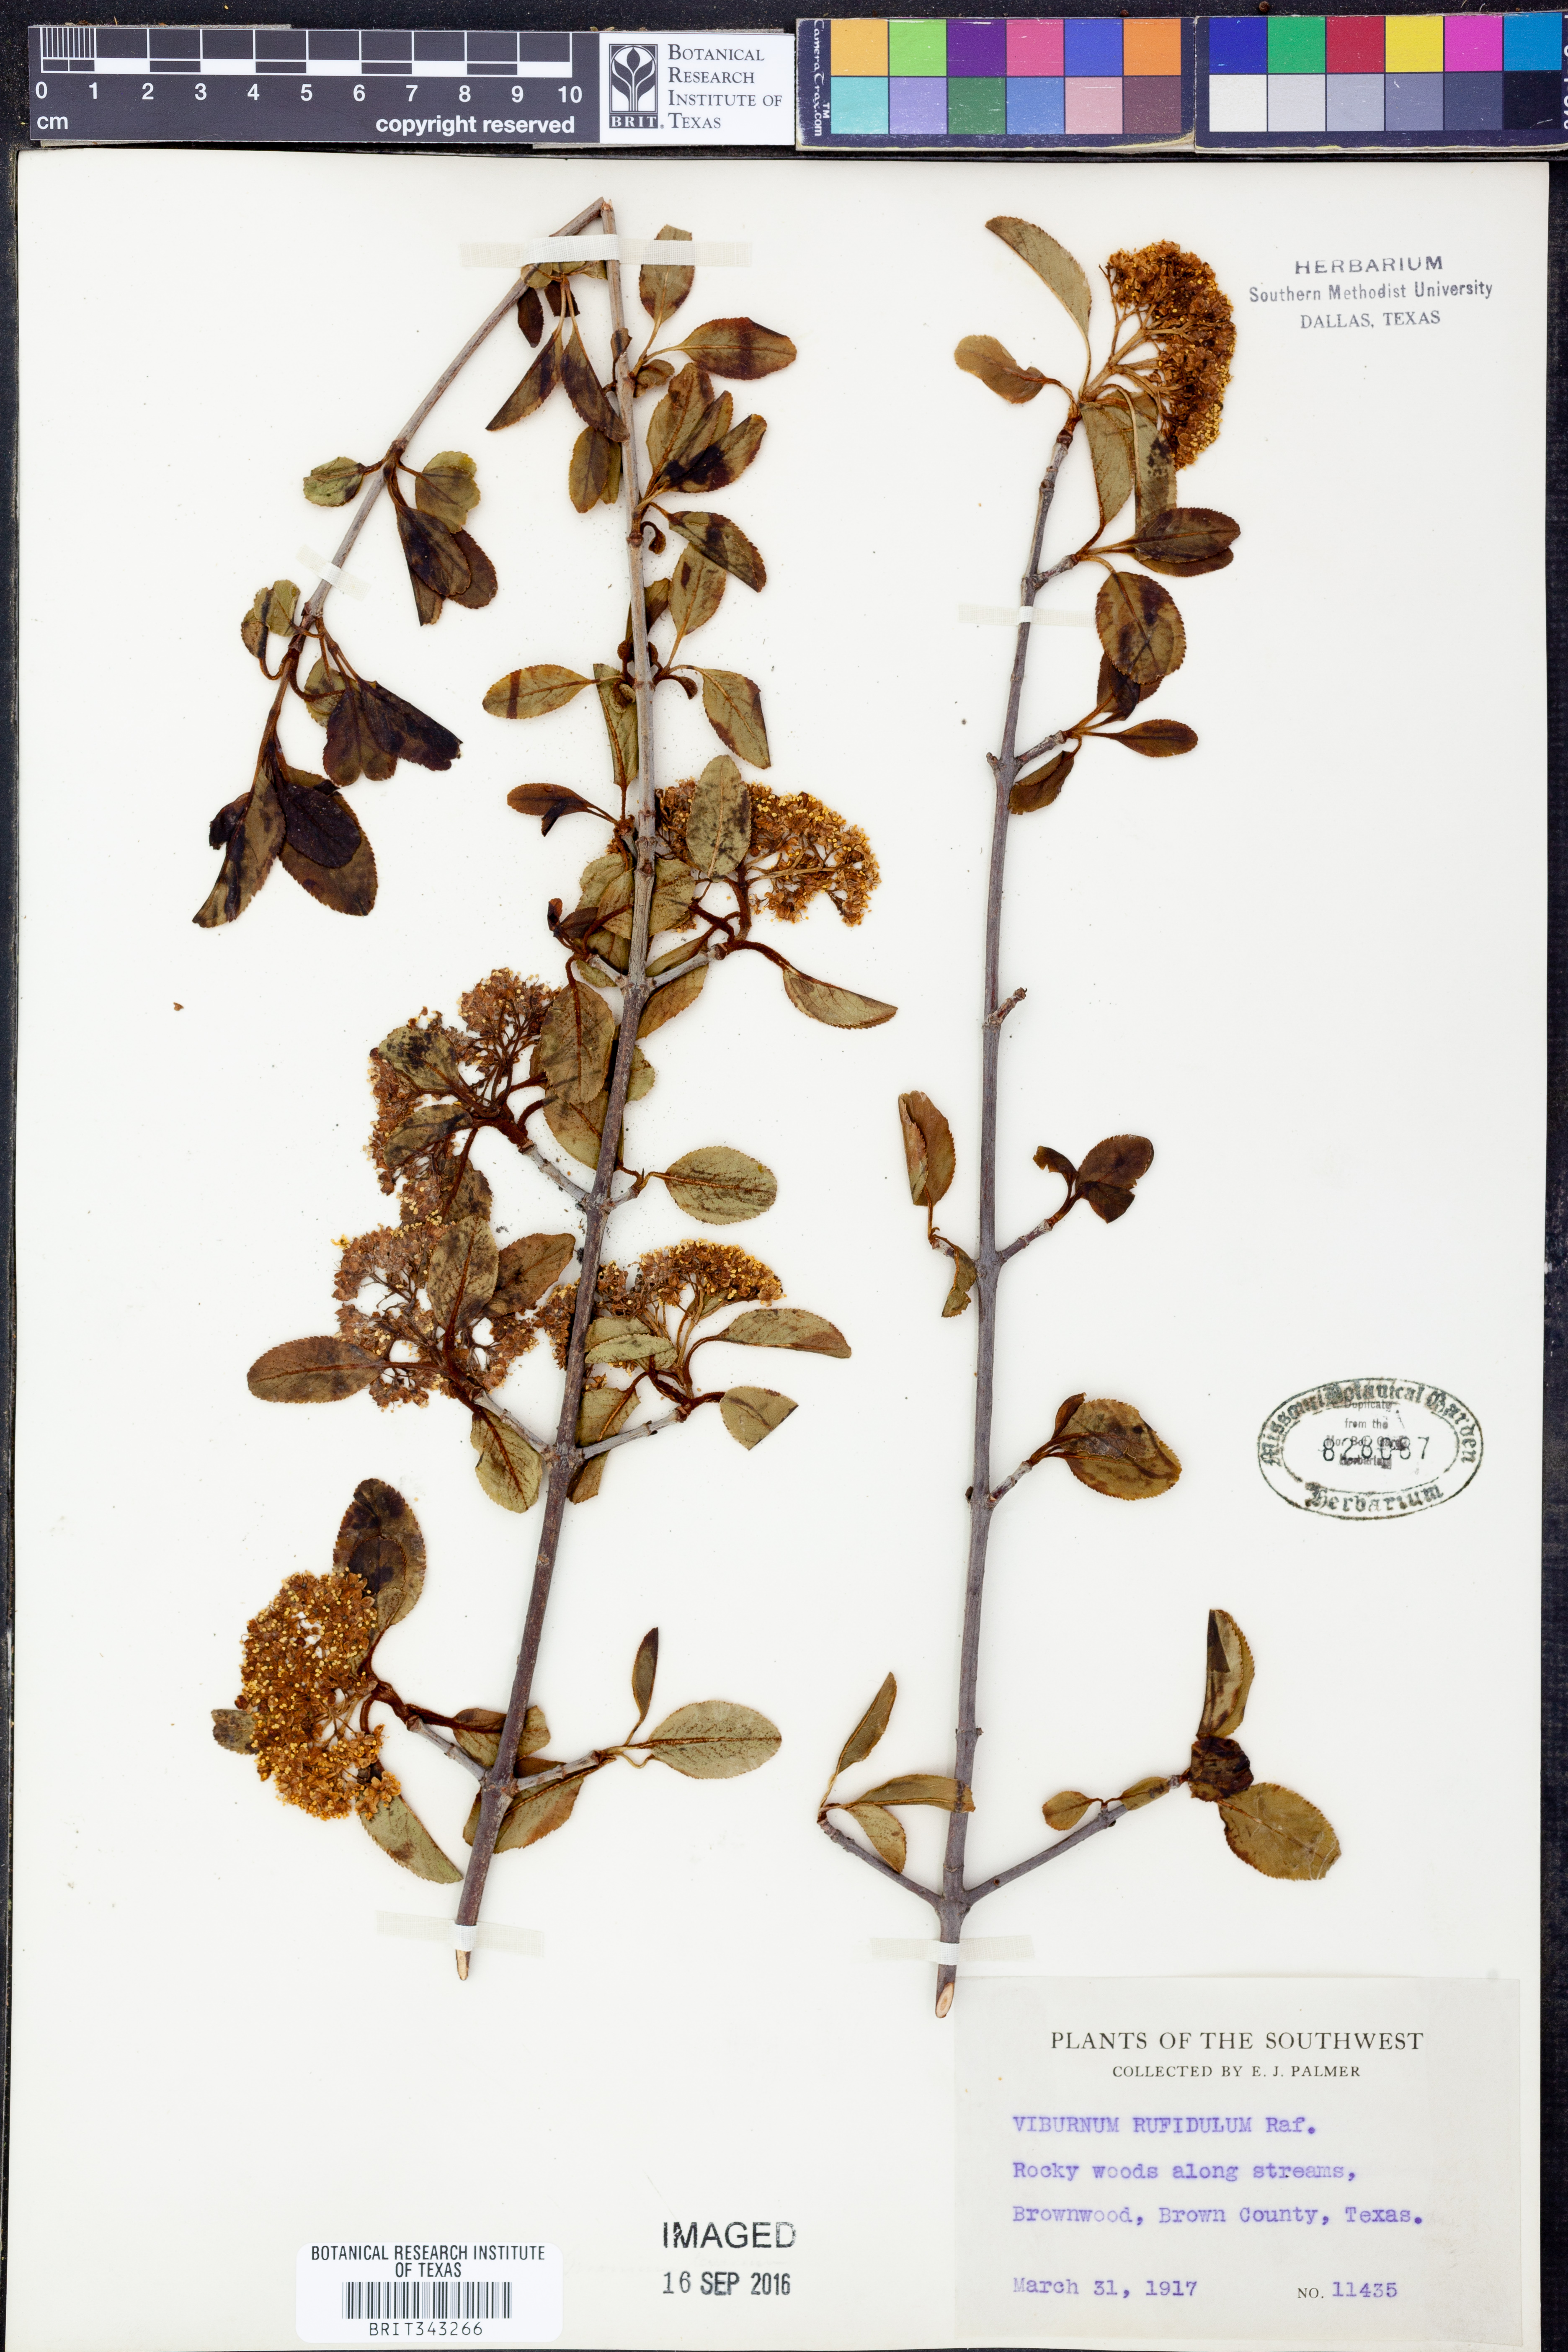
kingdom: Plantae
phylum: Tracheophyta
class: Magnoliopsida
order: Dipsacales
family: Viburnaceae
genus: Viburnum
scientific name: Viburnum rufidulum
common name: Blue haw
